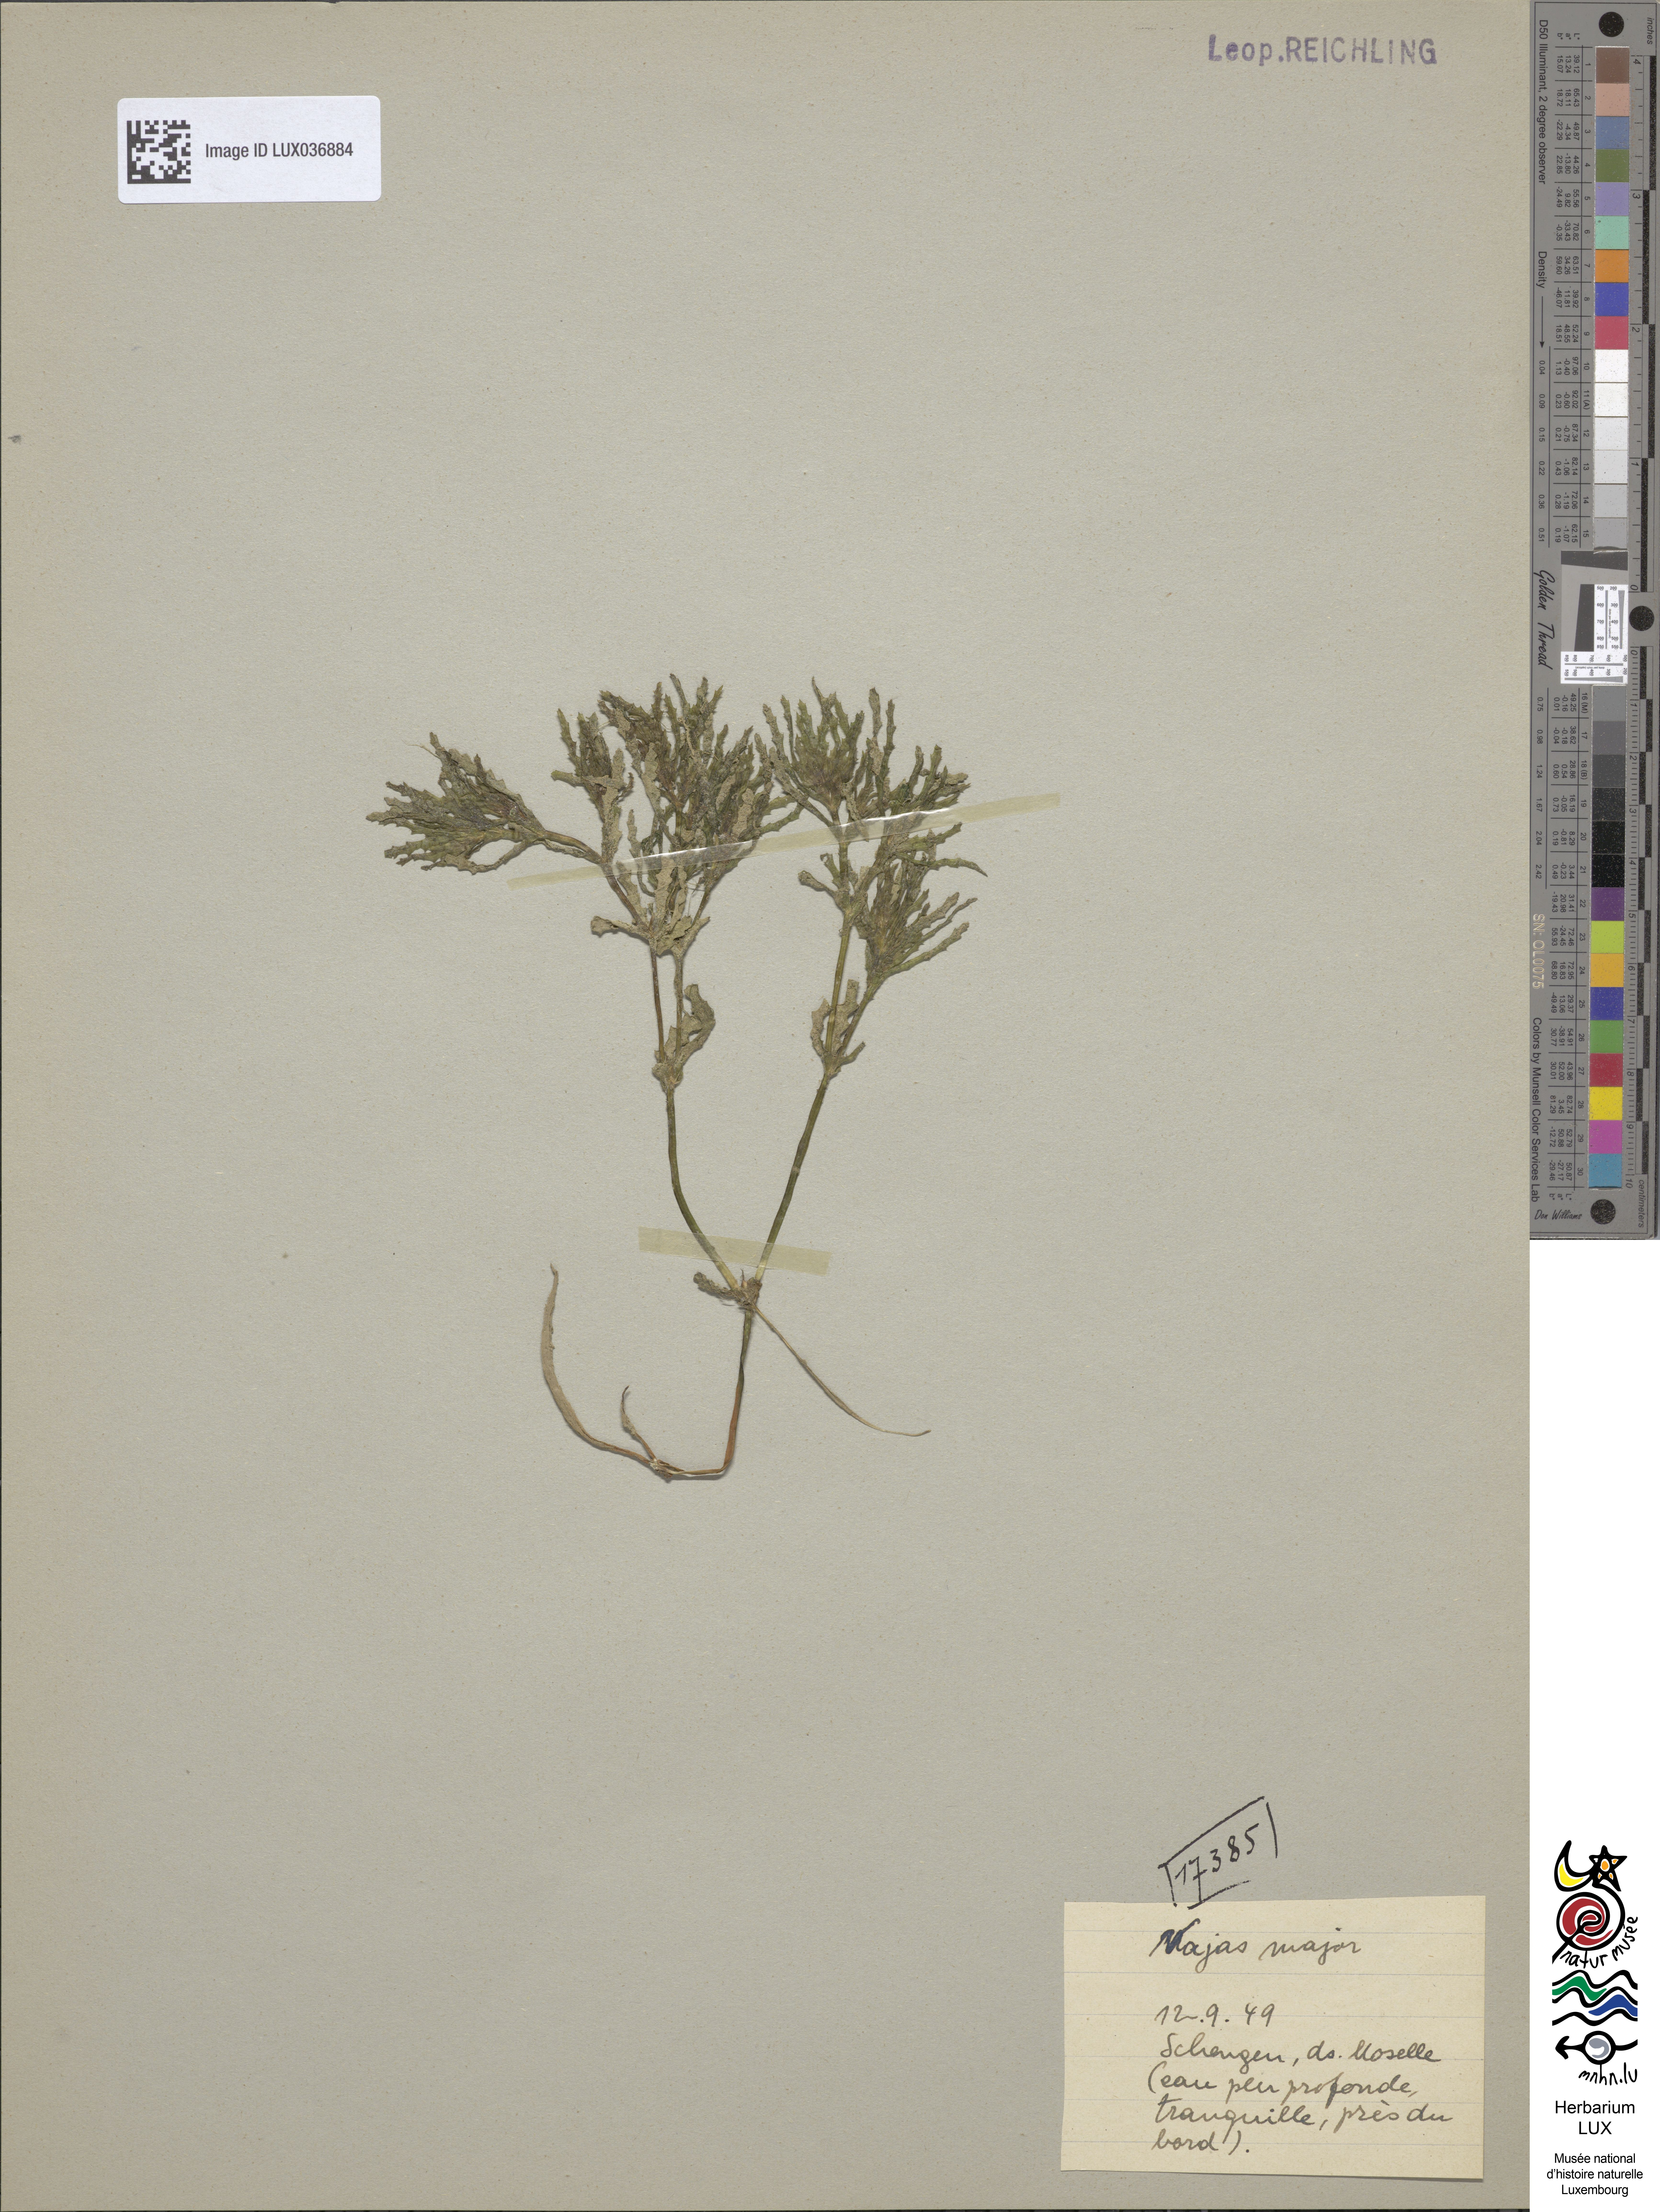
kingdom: Plantae
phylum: Tracheophyta
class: Liliopsida
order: Alismatales
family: Hydrocharitaceae
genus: Najas
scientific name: Najas marina
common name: Holly-leaved naiad
